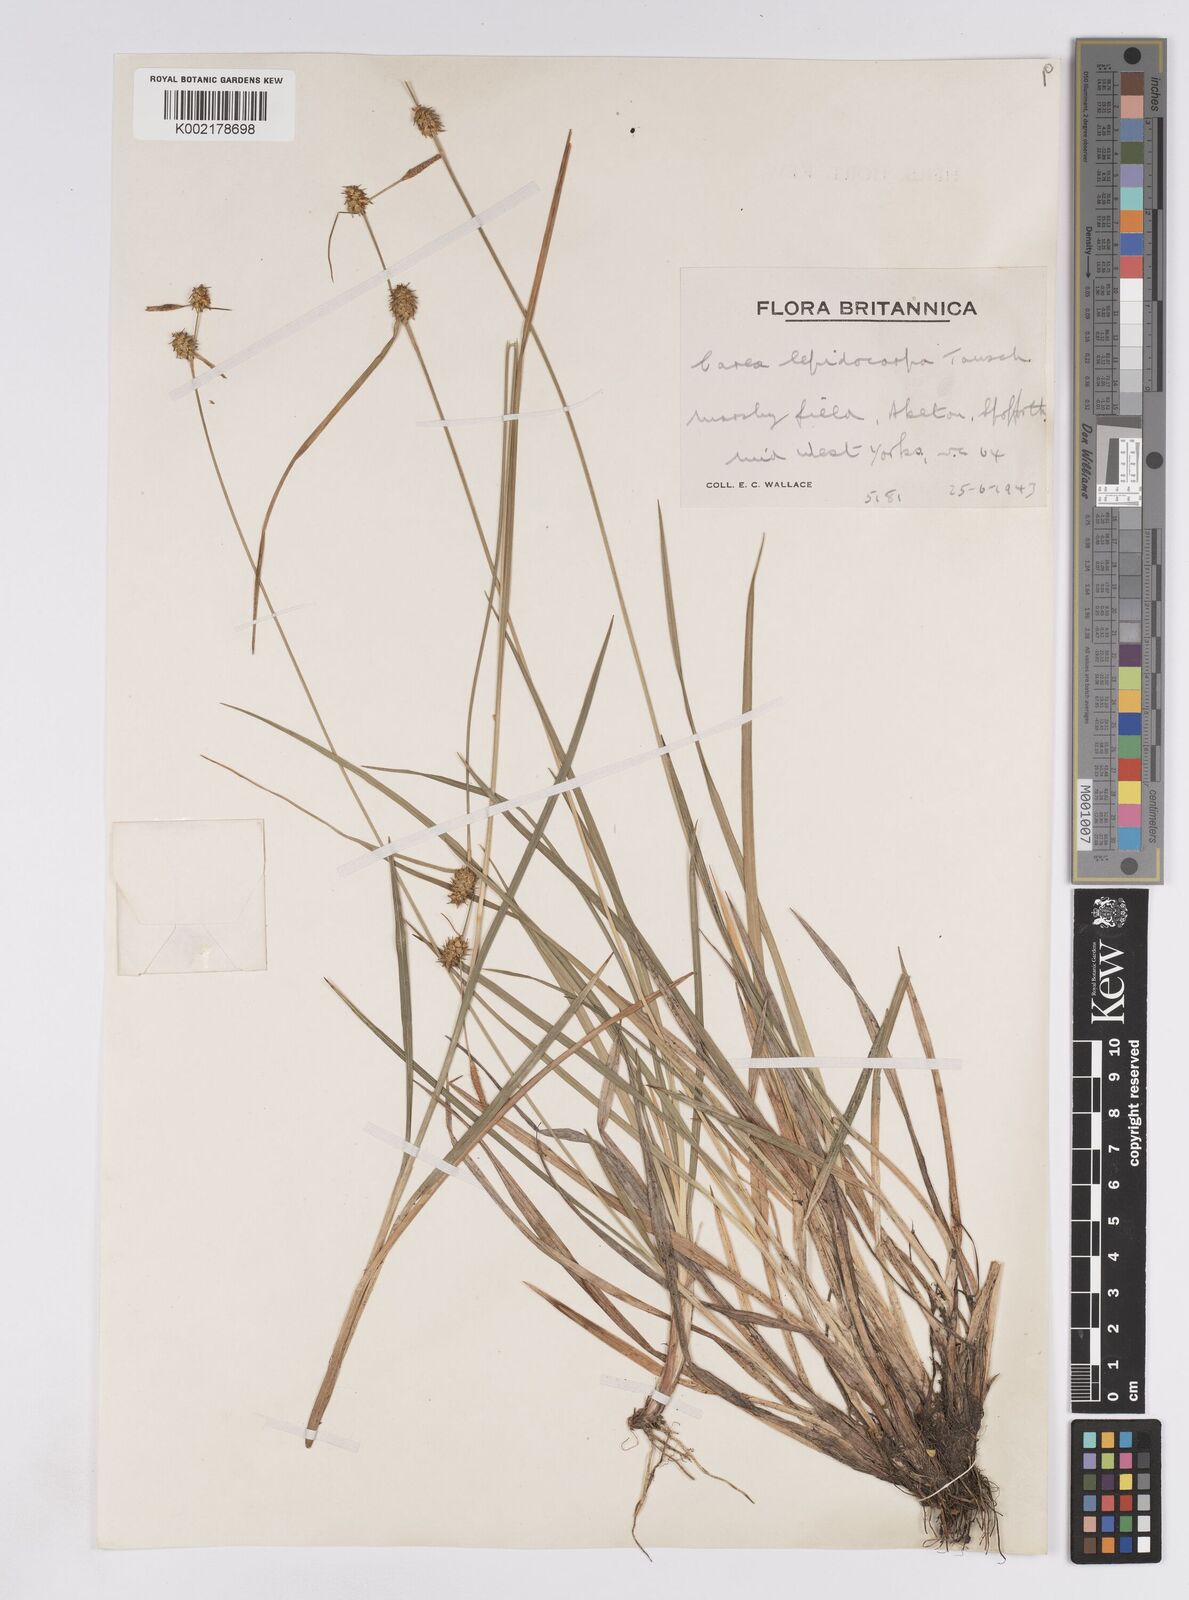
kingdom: Plantae
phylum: Tracheophyta
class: Liliopsida
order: Poales
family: Cyperaceae
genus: Carex
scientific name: Carex lepidocarpa
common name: Long-stalked yellow-sedge
